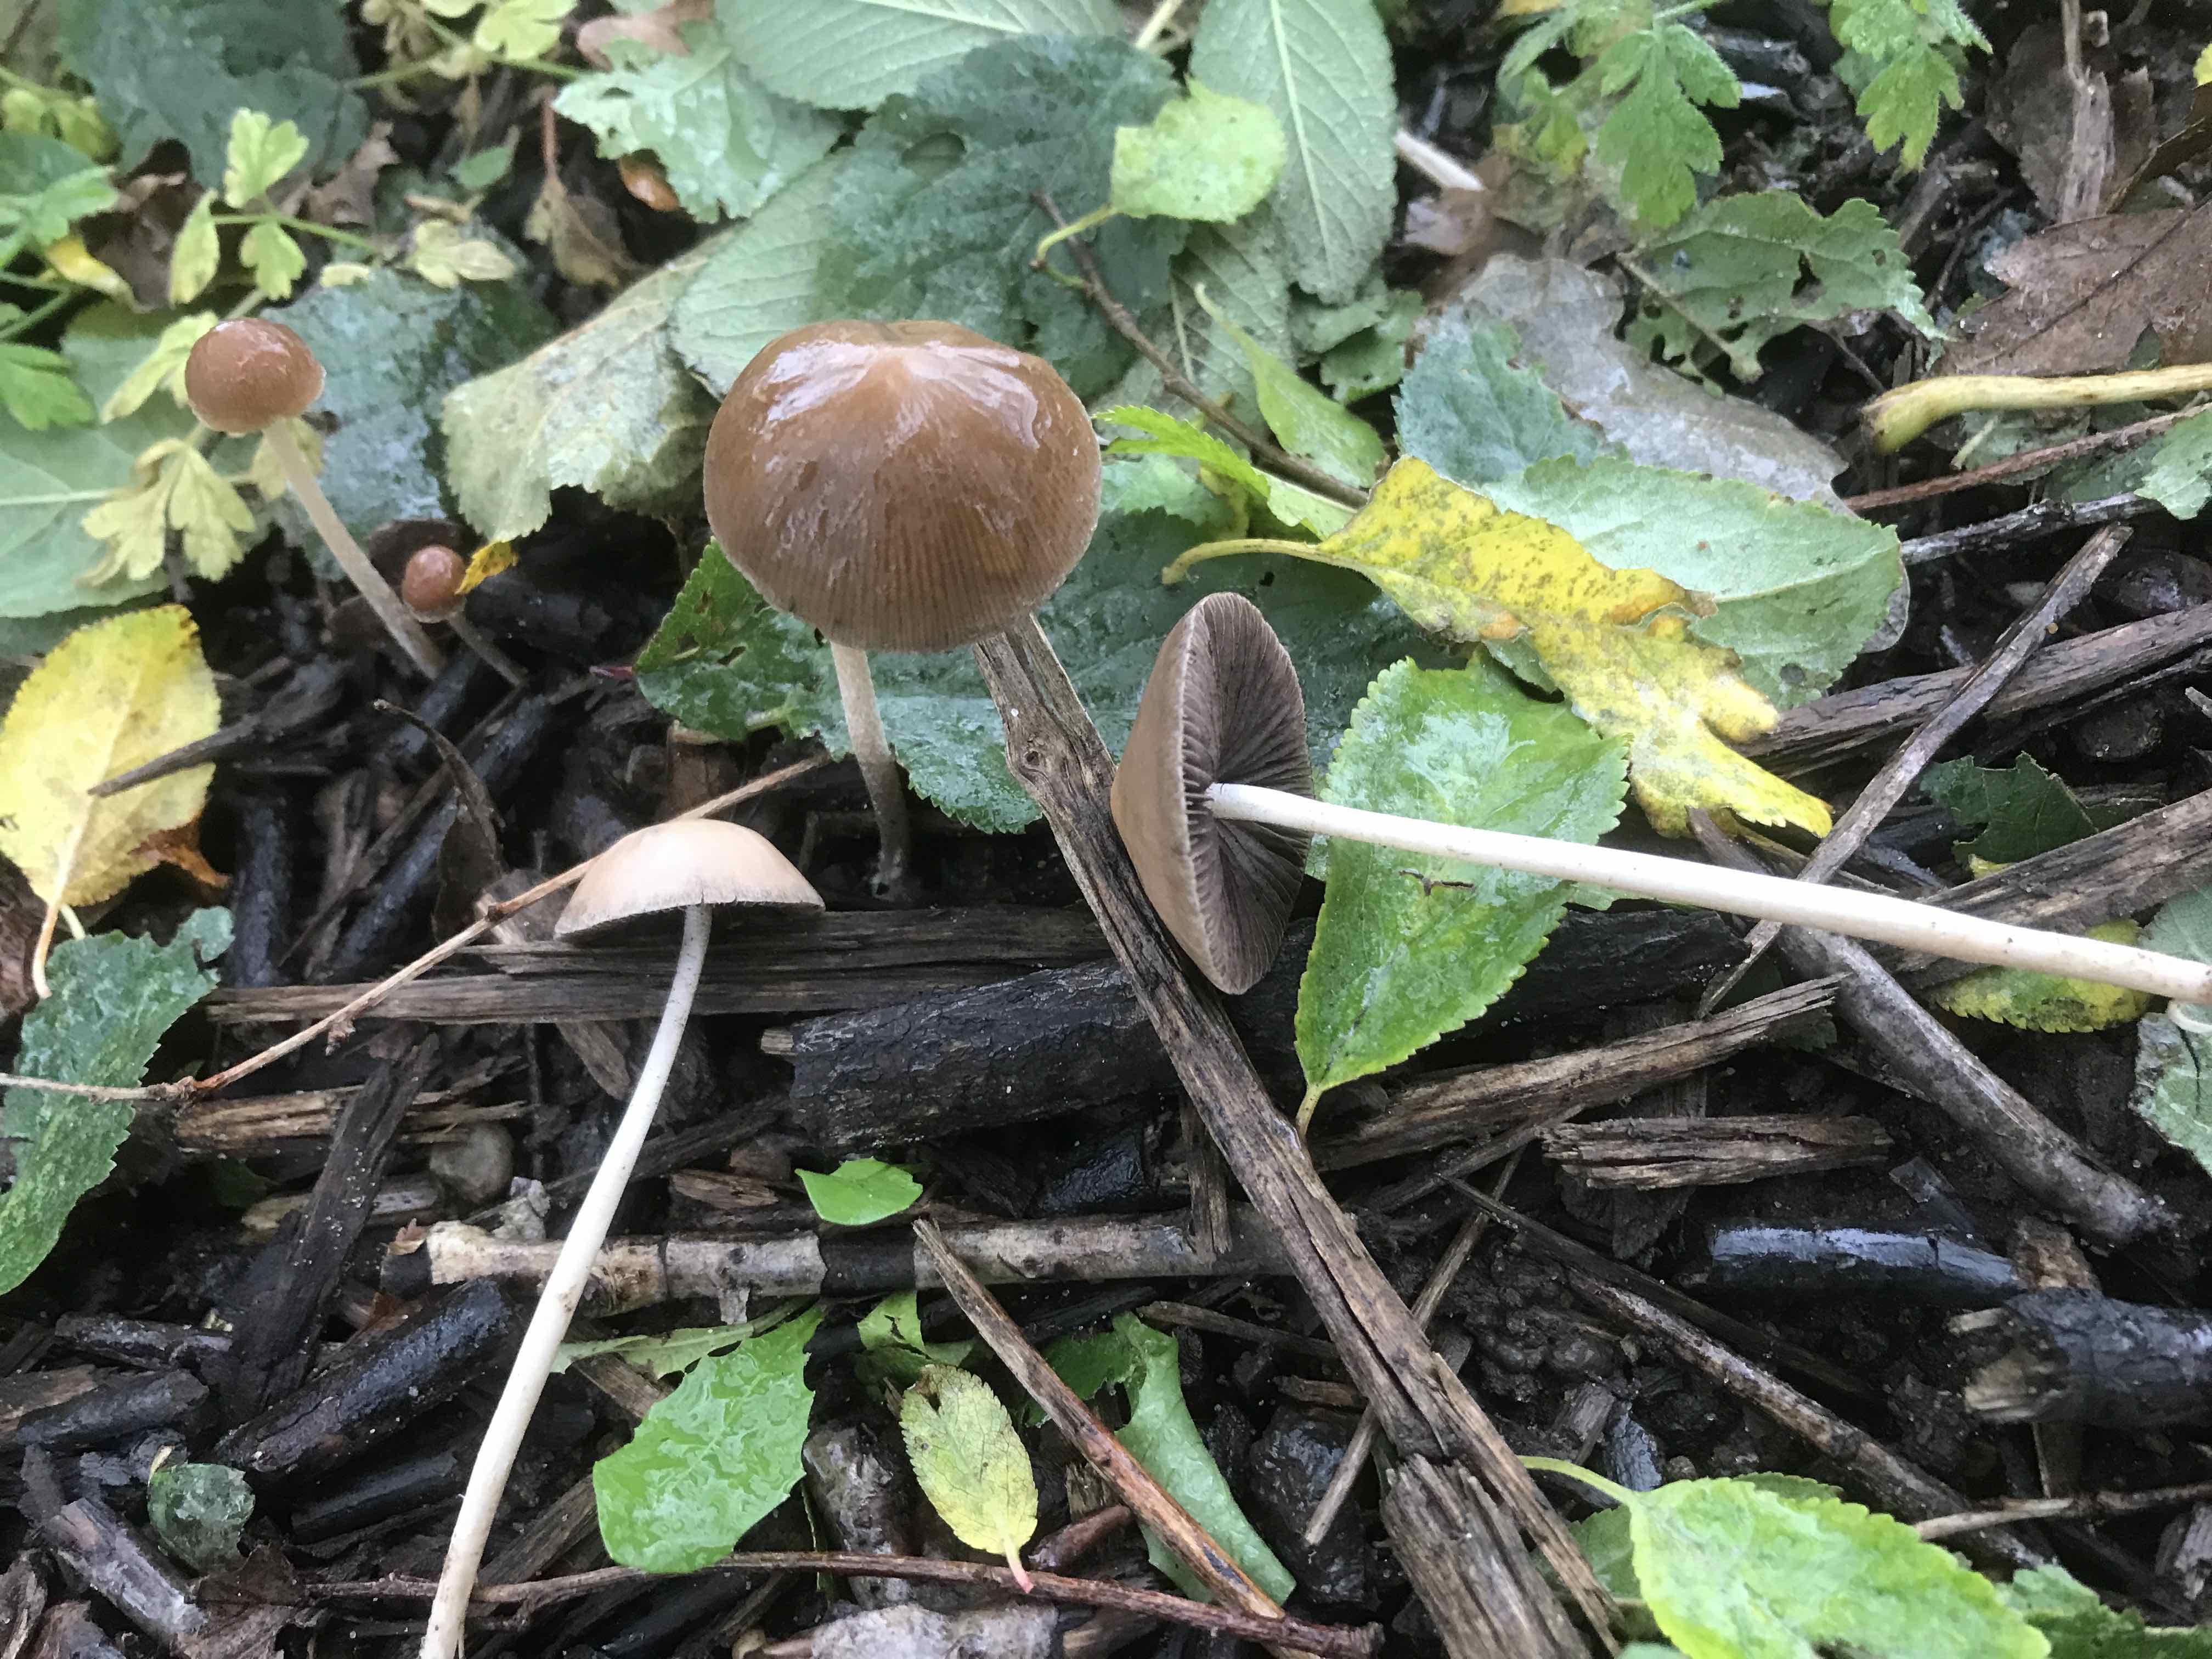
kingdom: Fungi
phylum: Basidiomycota
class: Agaricomycetes
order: Agaricales
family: Psathyrellaceae
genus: Parasola
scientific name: Parasola conopilea
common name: kegle-hjulhat
